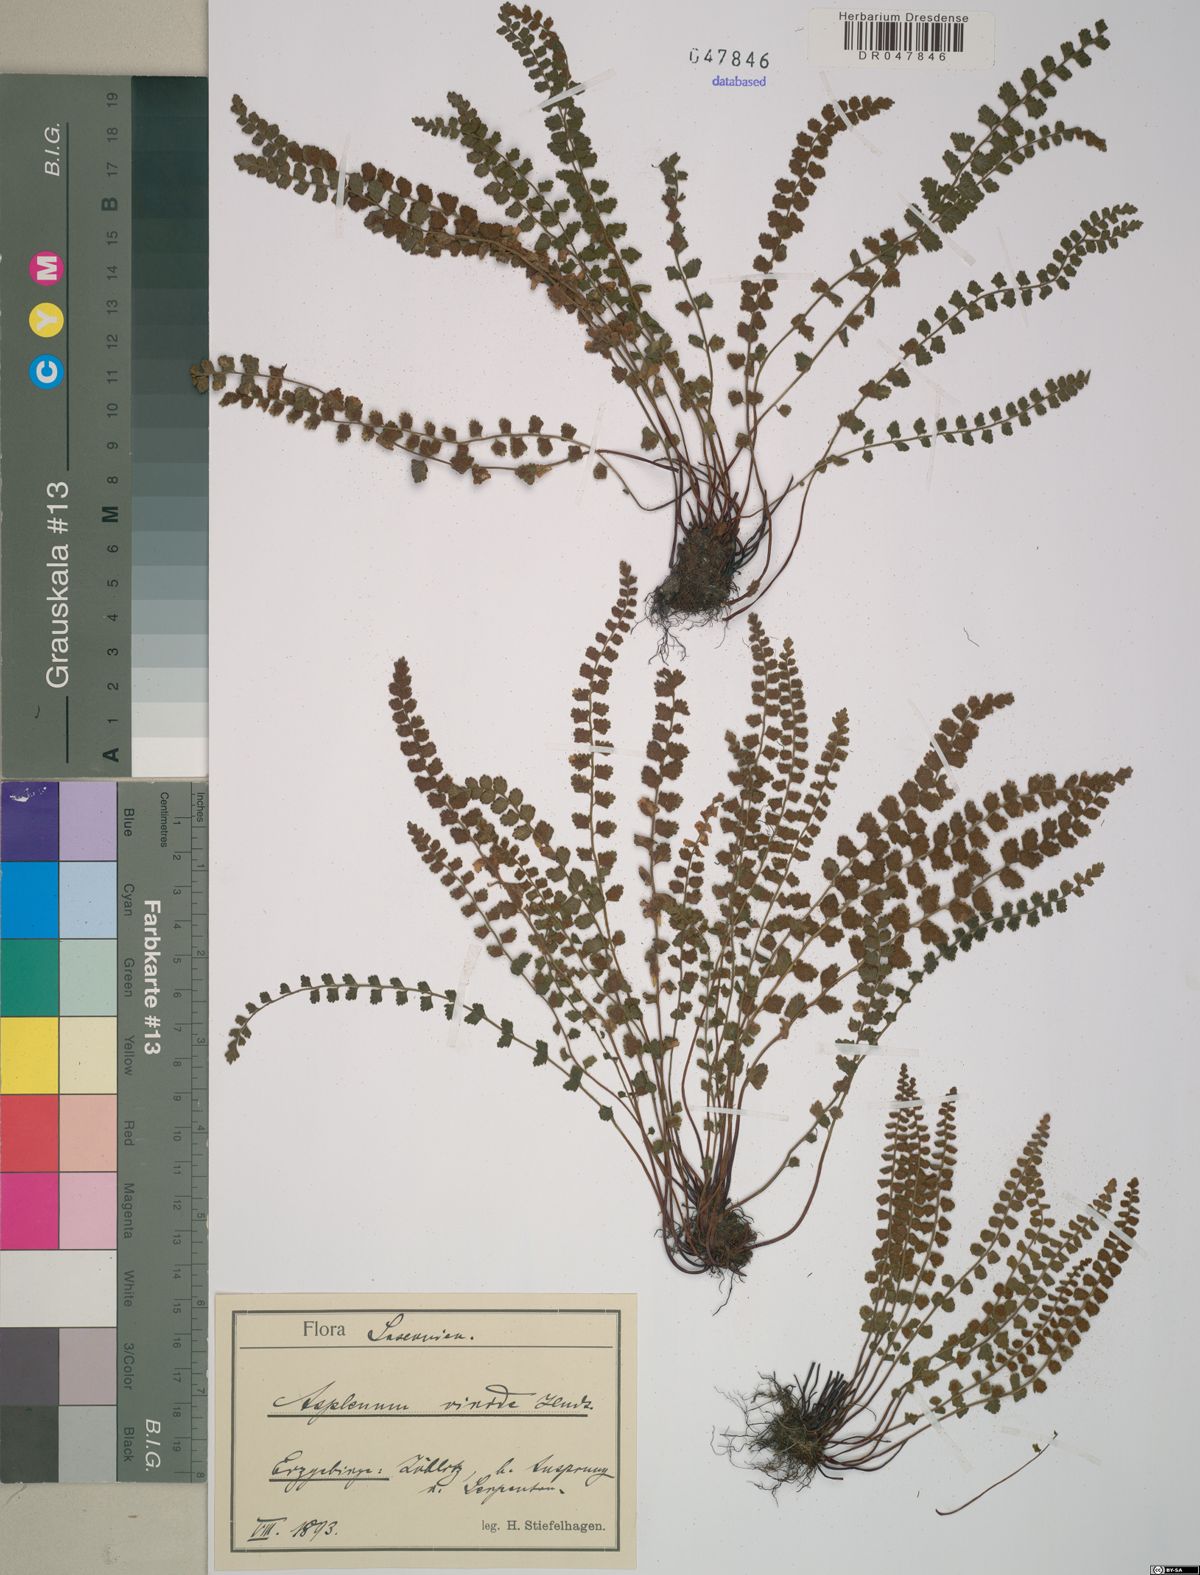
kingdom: Plantae
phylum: Tracheophyta
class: Polypodiopsida
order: Polypodiales
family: Aspleniaceae
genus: Asplenium
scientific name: Asplenium viride
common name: Green spleenwort
